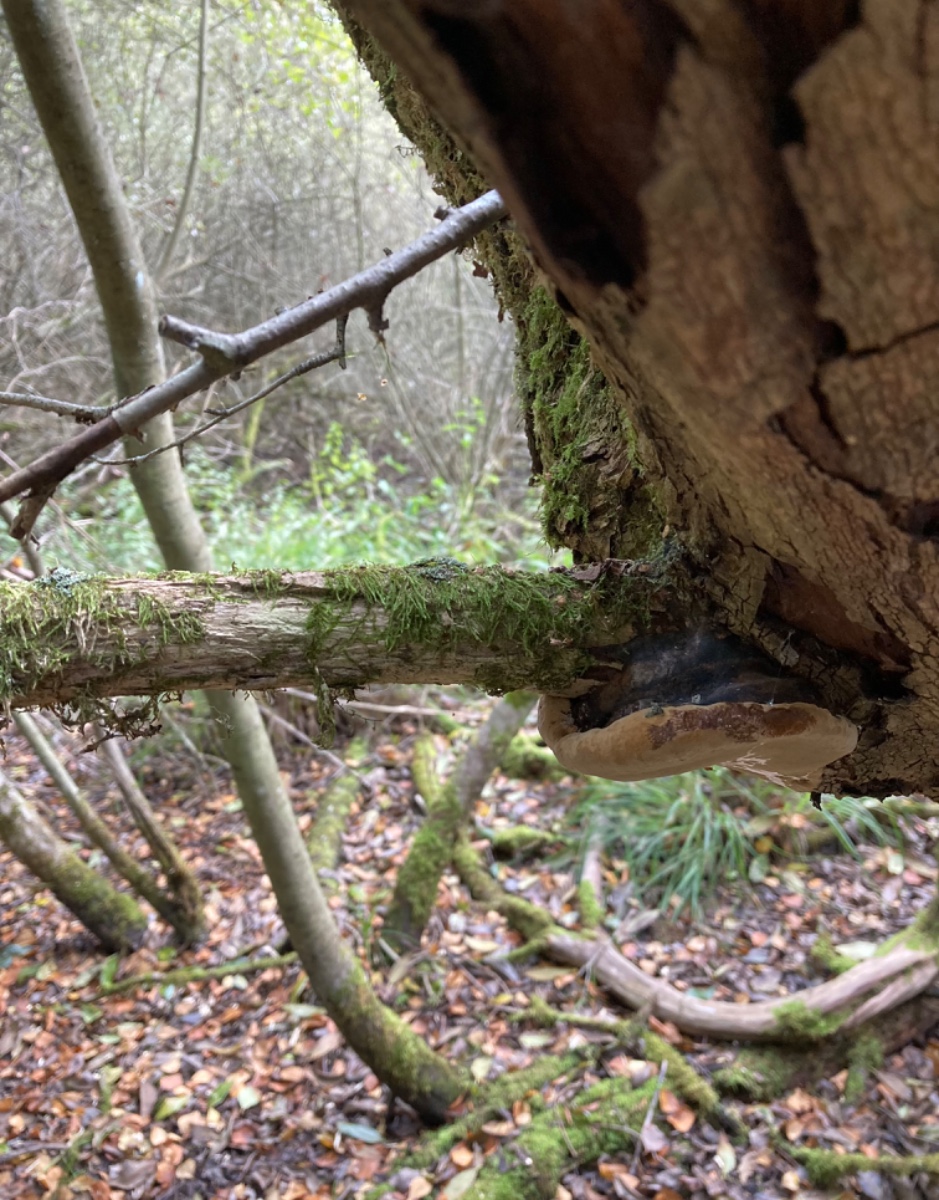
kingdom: Fungi
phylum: Basidiomycota
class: Agaricomycetes
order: Hymenochaetales
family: Hymenochaetaceae
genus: Phellinus
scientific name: Phellinus igniarius
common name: almindelig ildporesvamp
